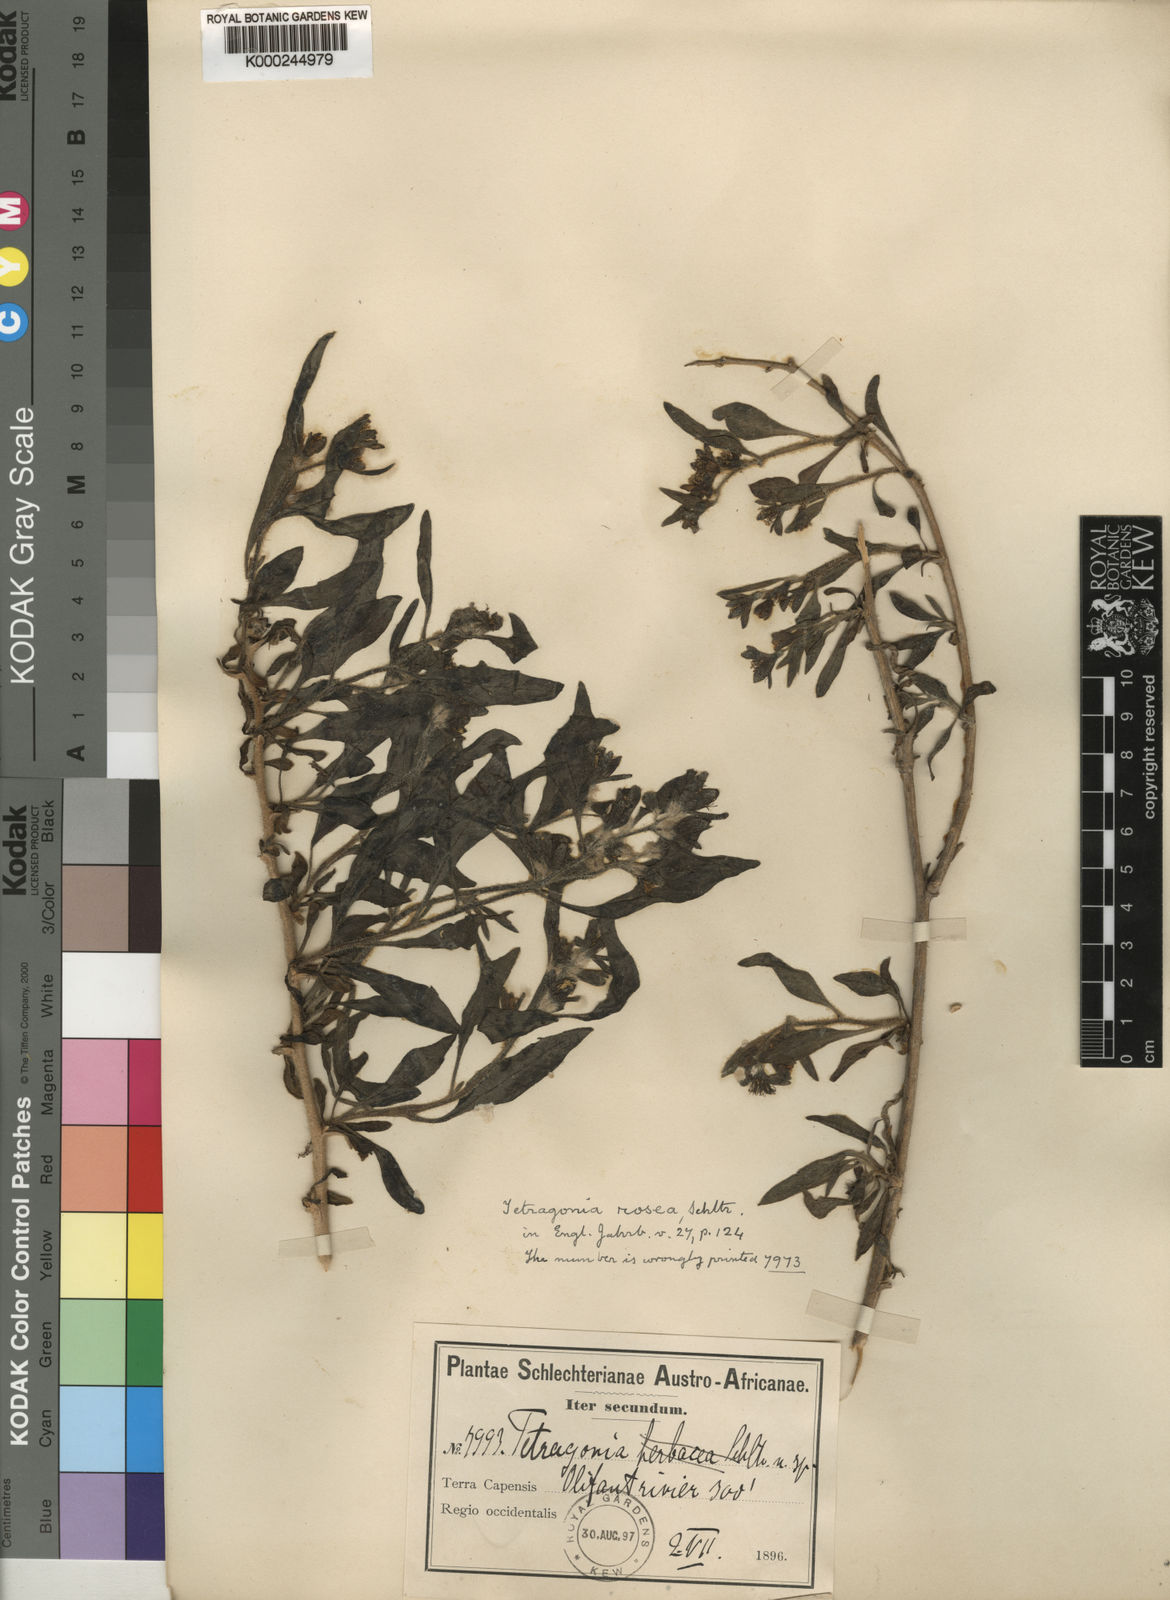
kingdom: Plantae
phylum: Tracheophyta
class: Magnoliopsida
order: Caryophyllales
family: Aizoaceae
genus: Tetragonia
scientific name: Tetragonia rosea
